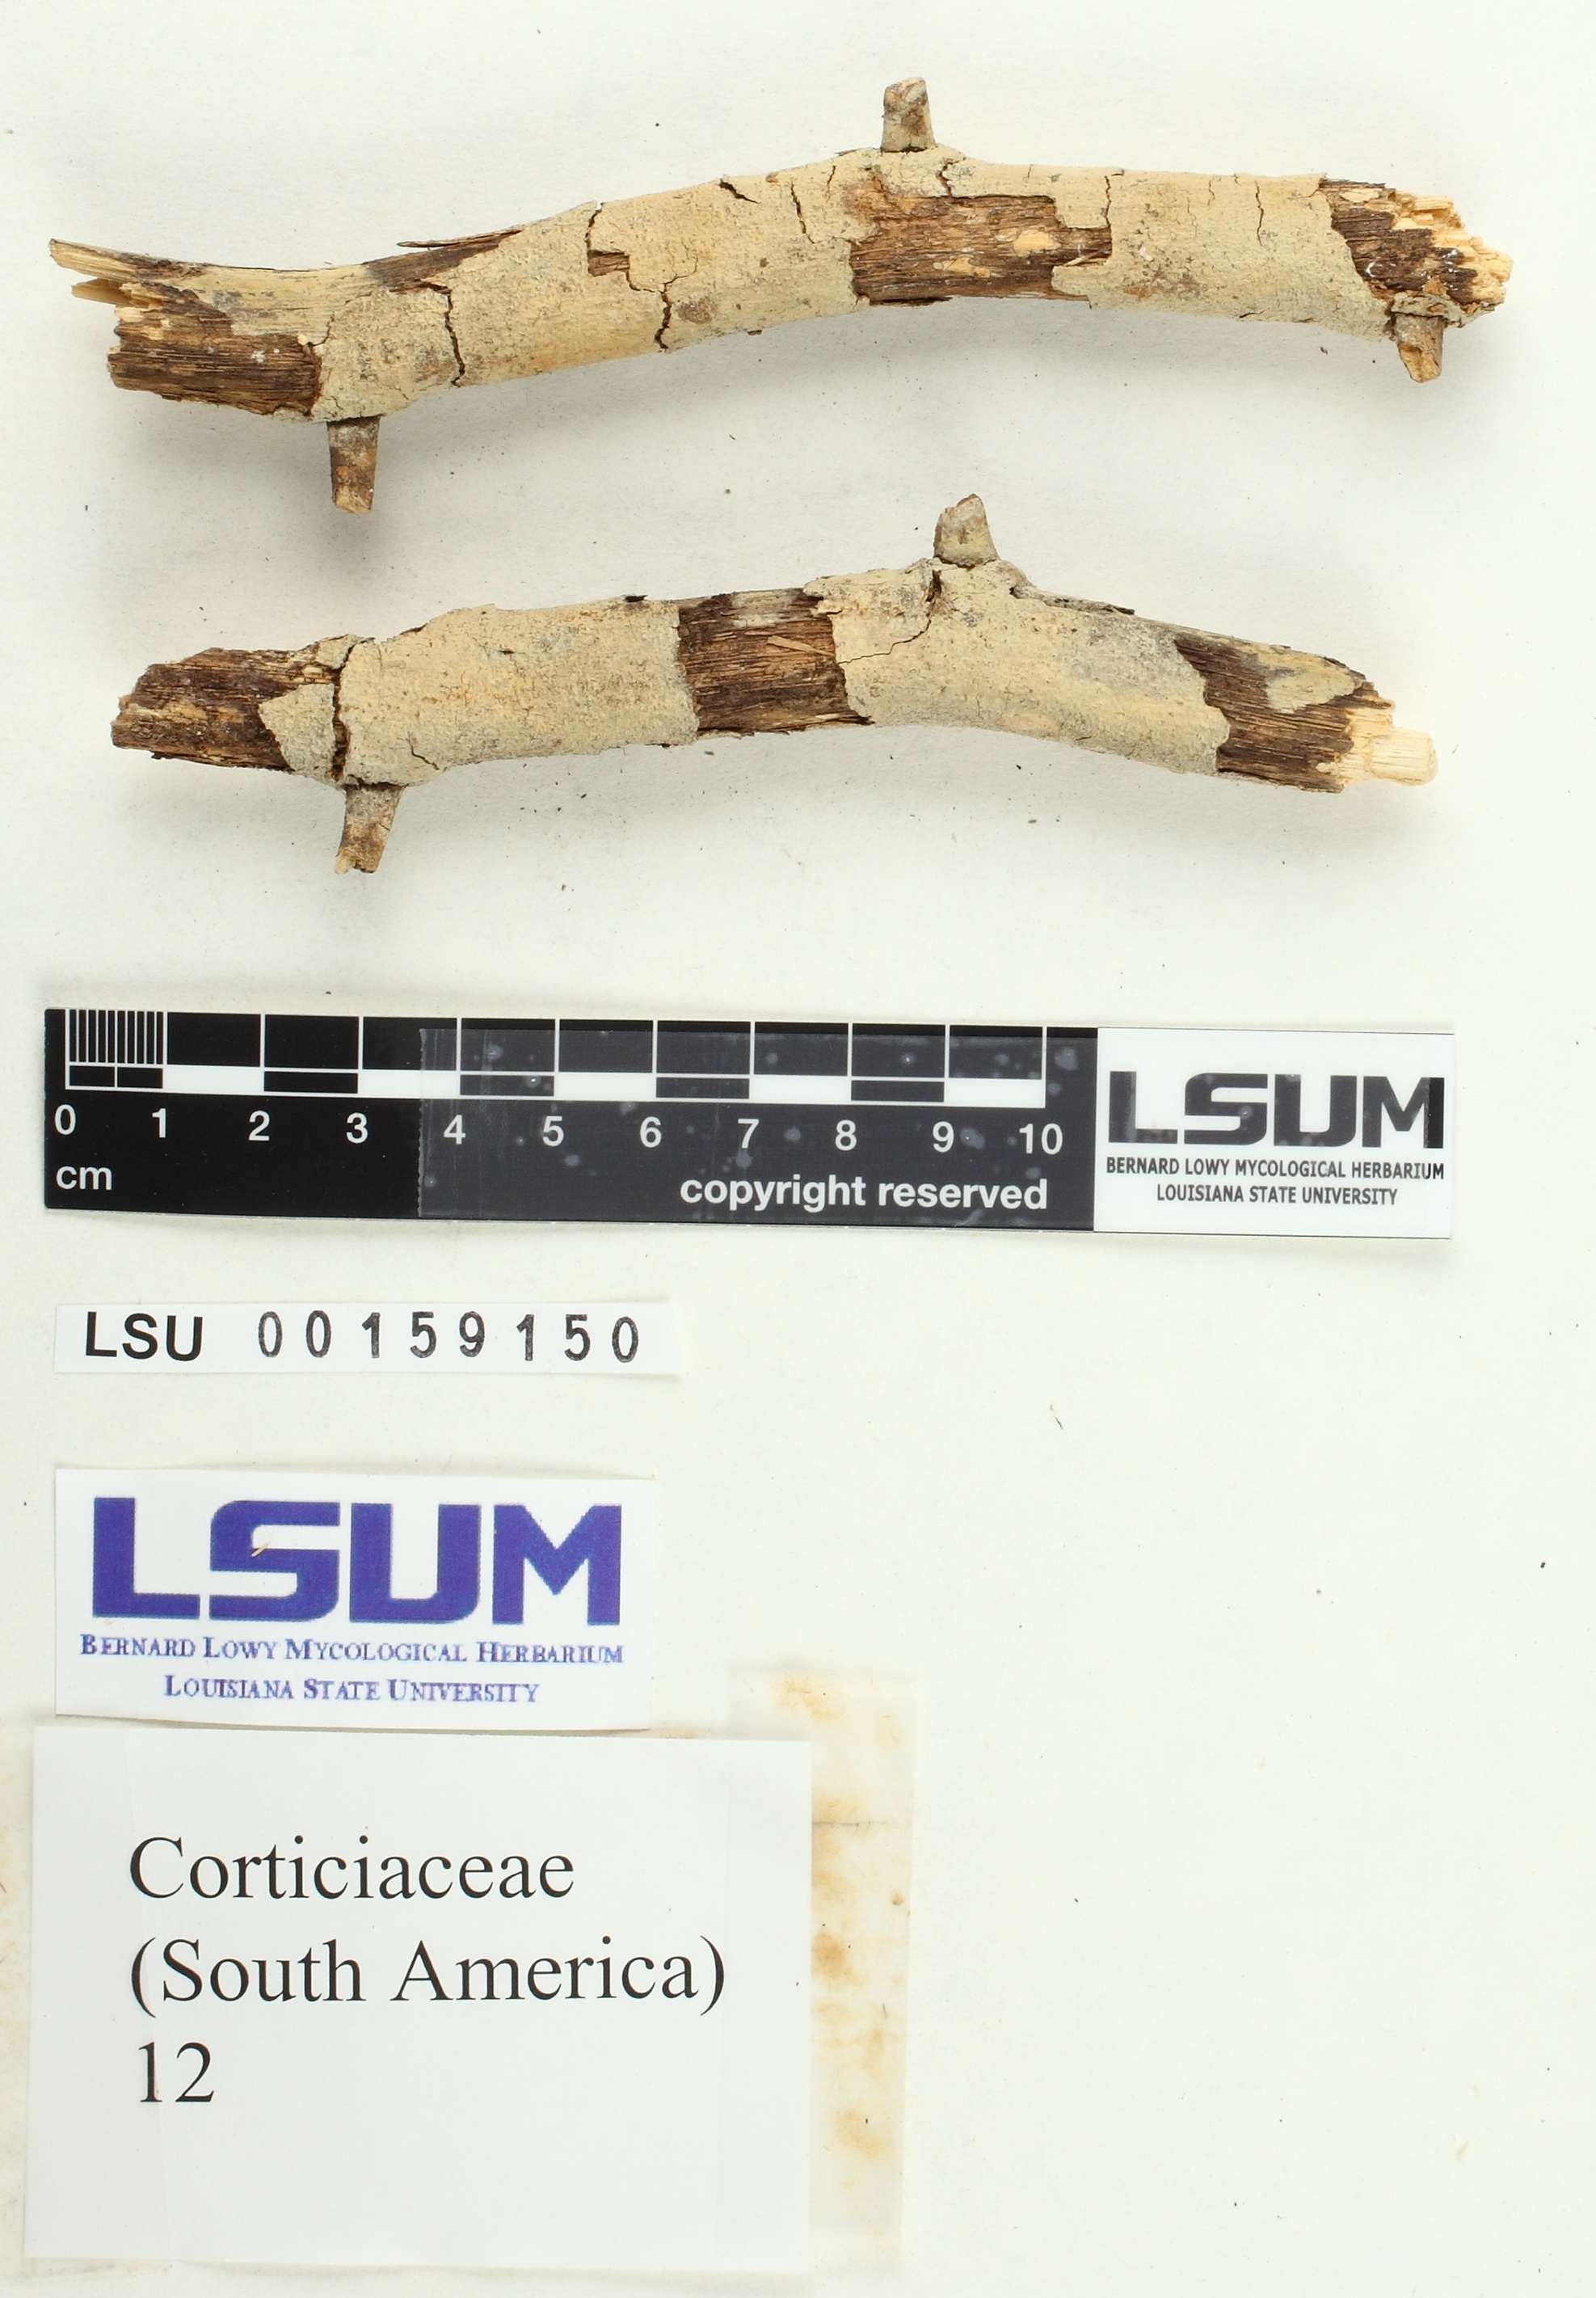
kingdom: Fungi
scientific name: Fungi
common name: Fungi
